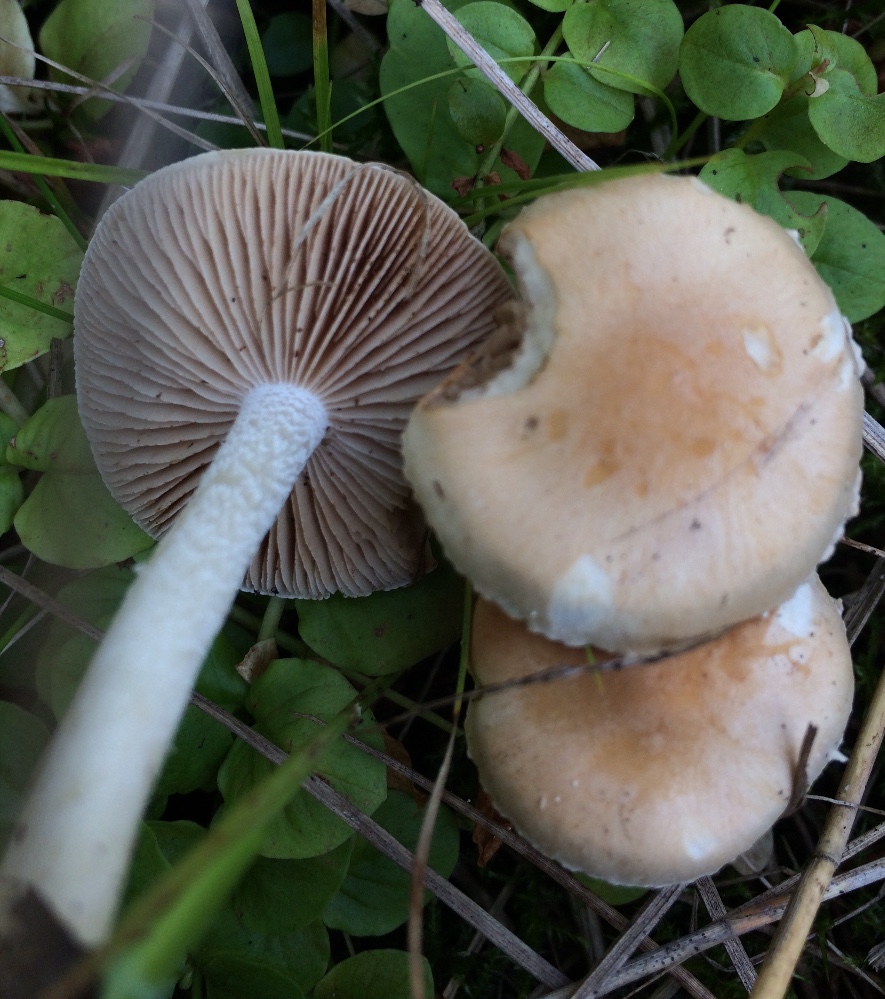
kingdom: Fungi
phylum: Basidiomycota
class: Agaricomycetes
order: Agaricales
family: Hymenogastraceae
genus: Hebeloma
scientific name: Hebeloma
